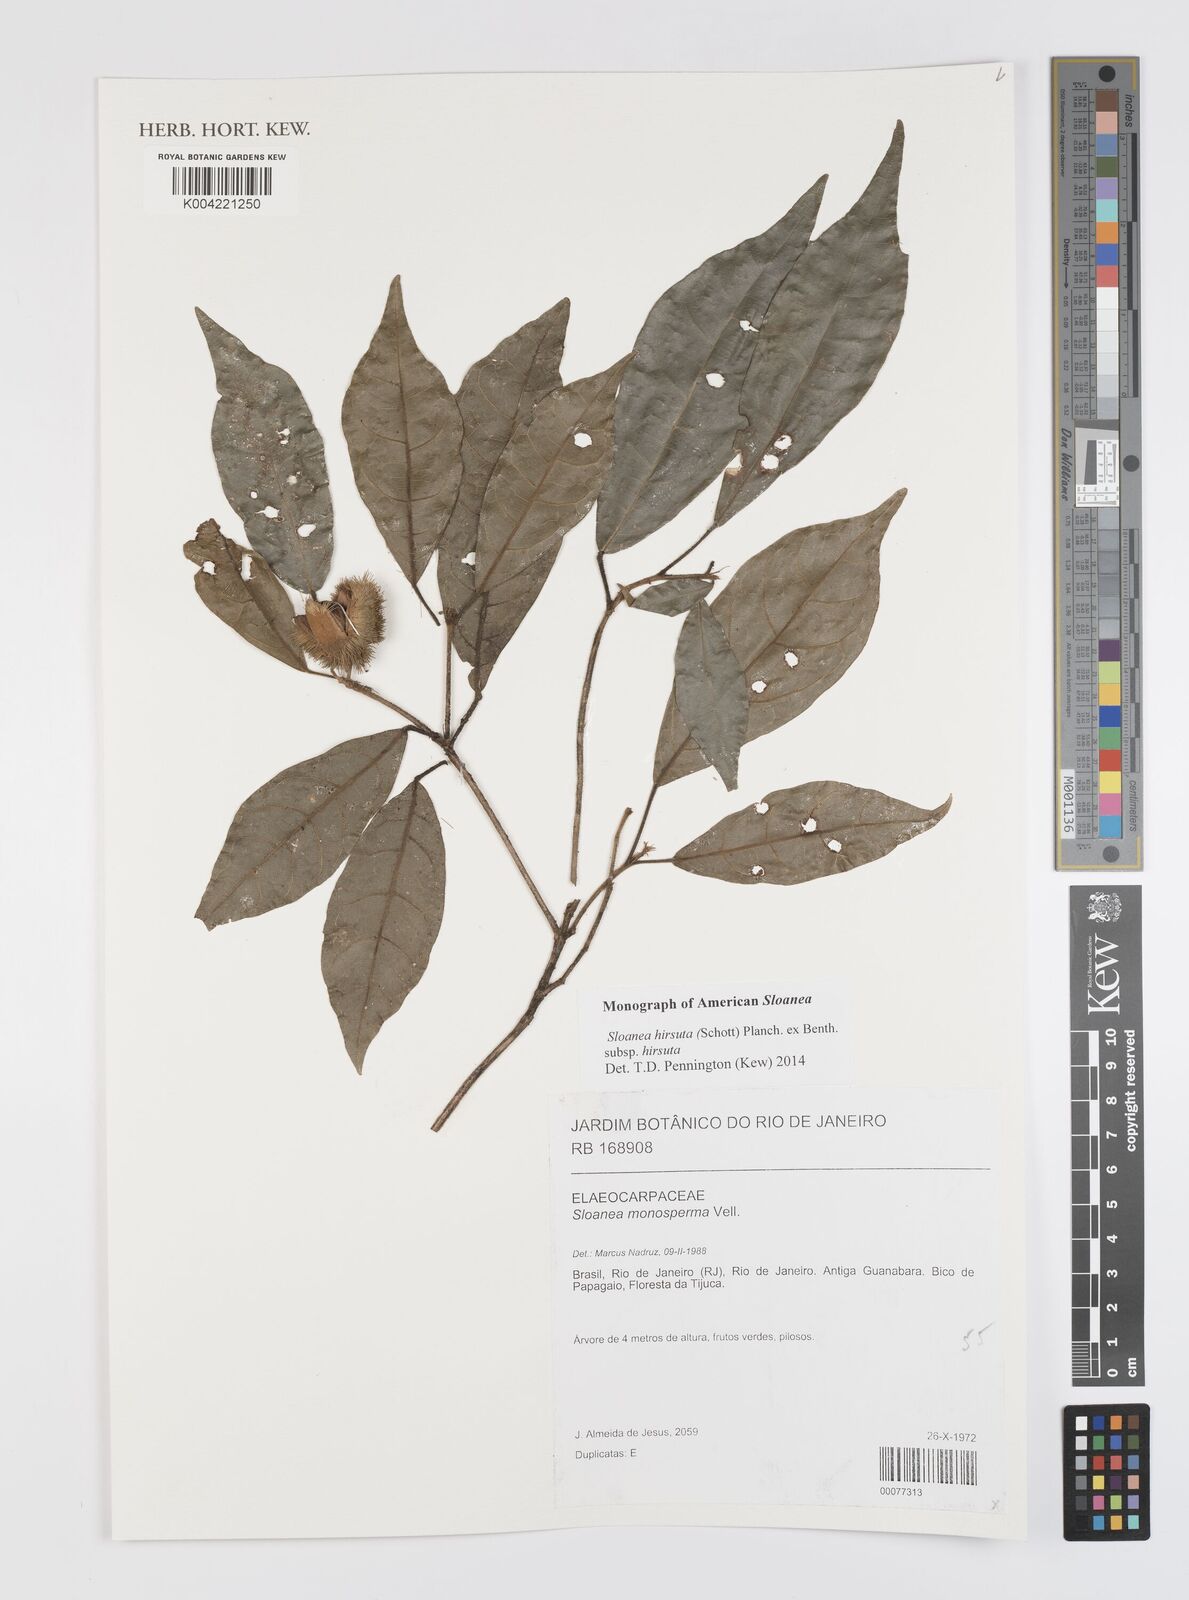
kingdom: Plantae
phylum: Tracheophyta
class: Magnoliopsida
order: Oxalidales
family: Elaeocarpaceae
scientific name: Elaeocarpaceae
